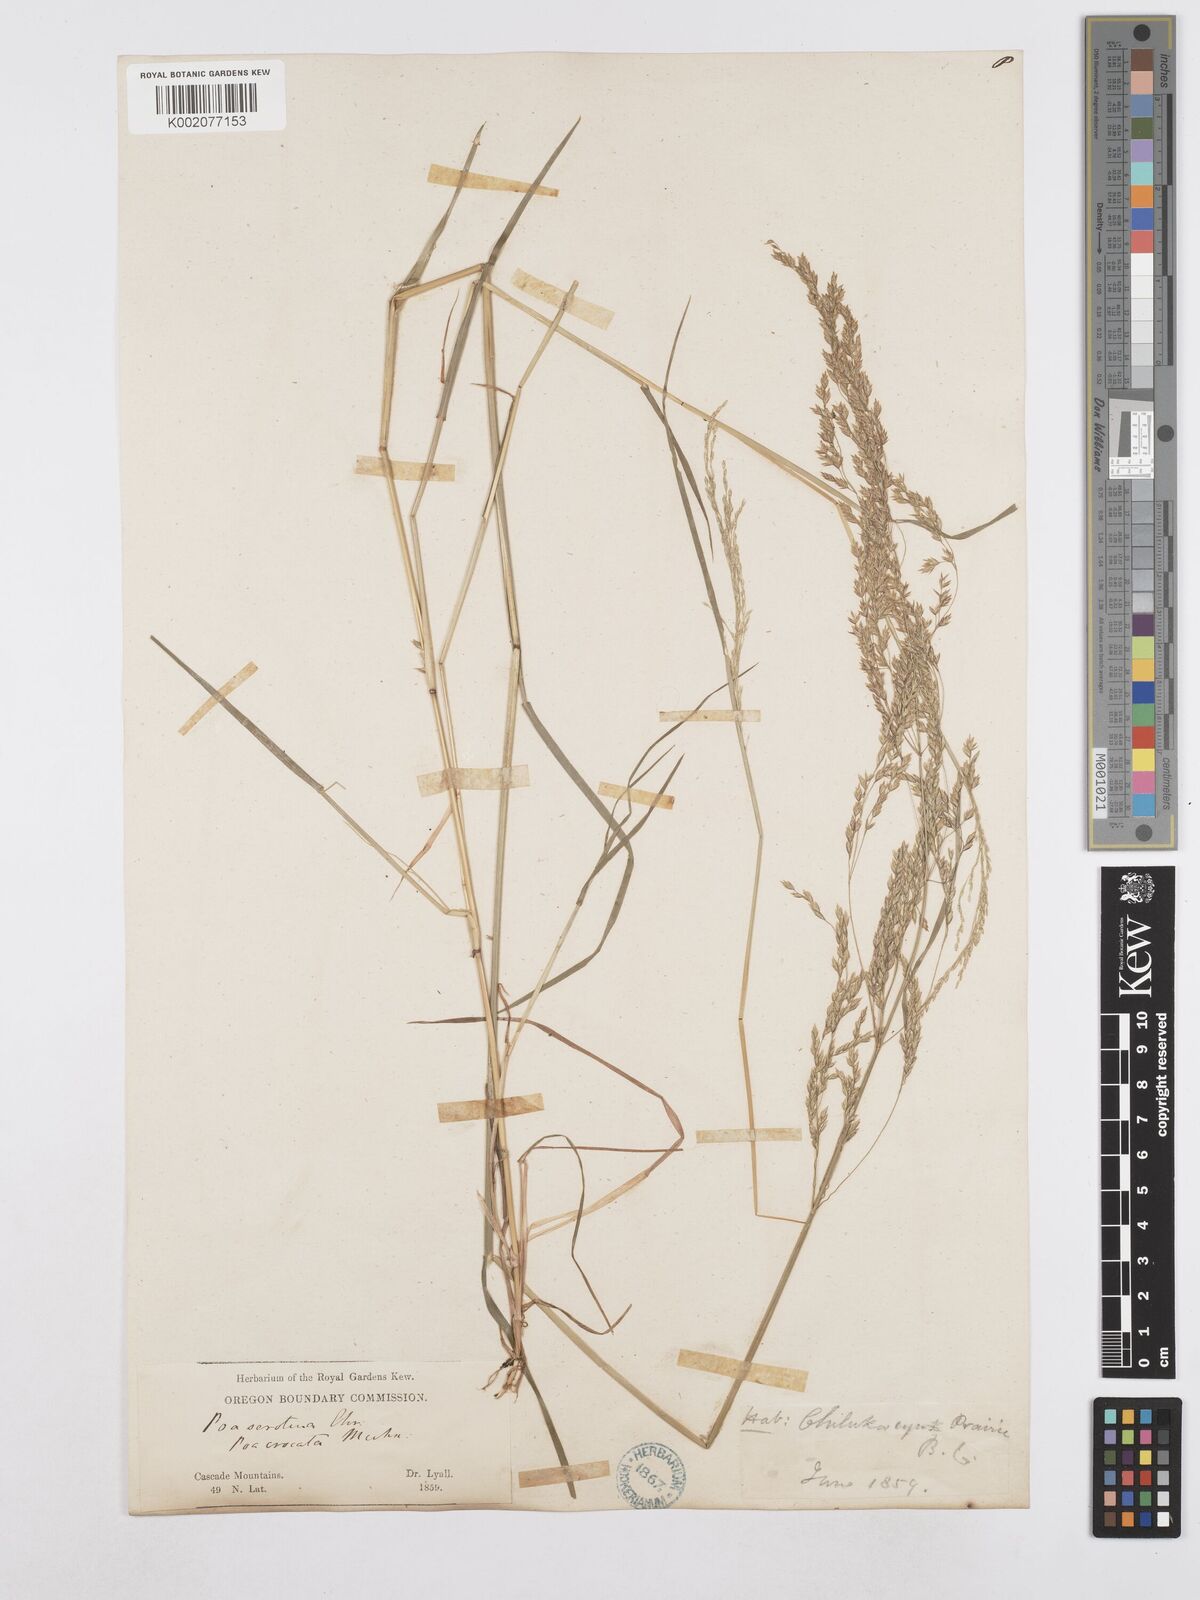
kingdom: Plantae
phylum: Tracheophyta
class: Liliopsida
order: Poales
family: Poaceae
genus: Poa
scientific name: Poa palustris
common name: Swamp meadow-grass
